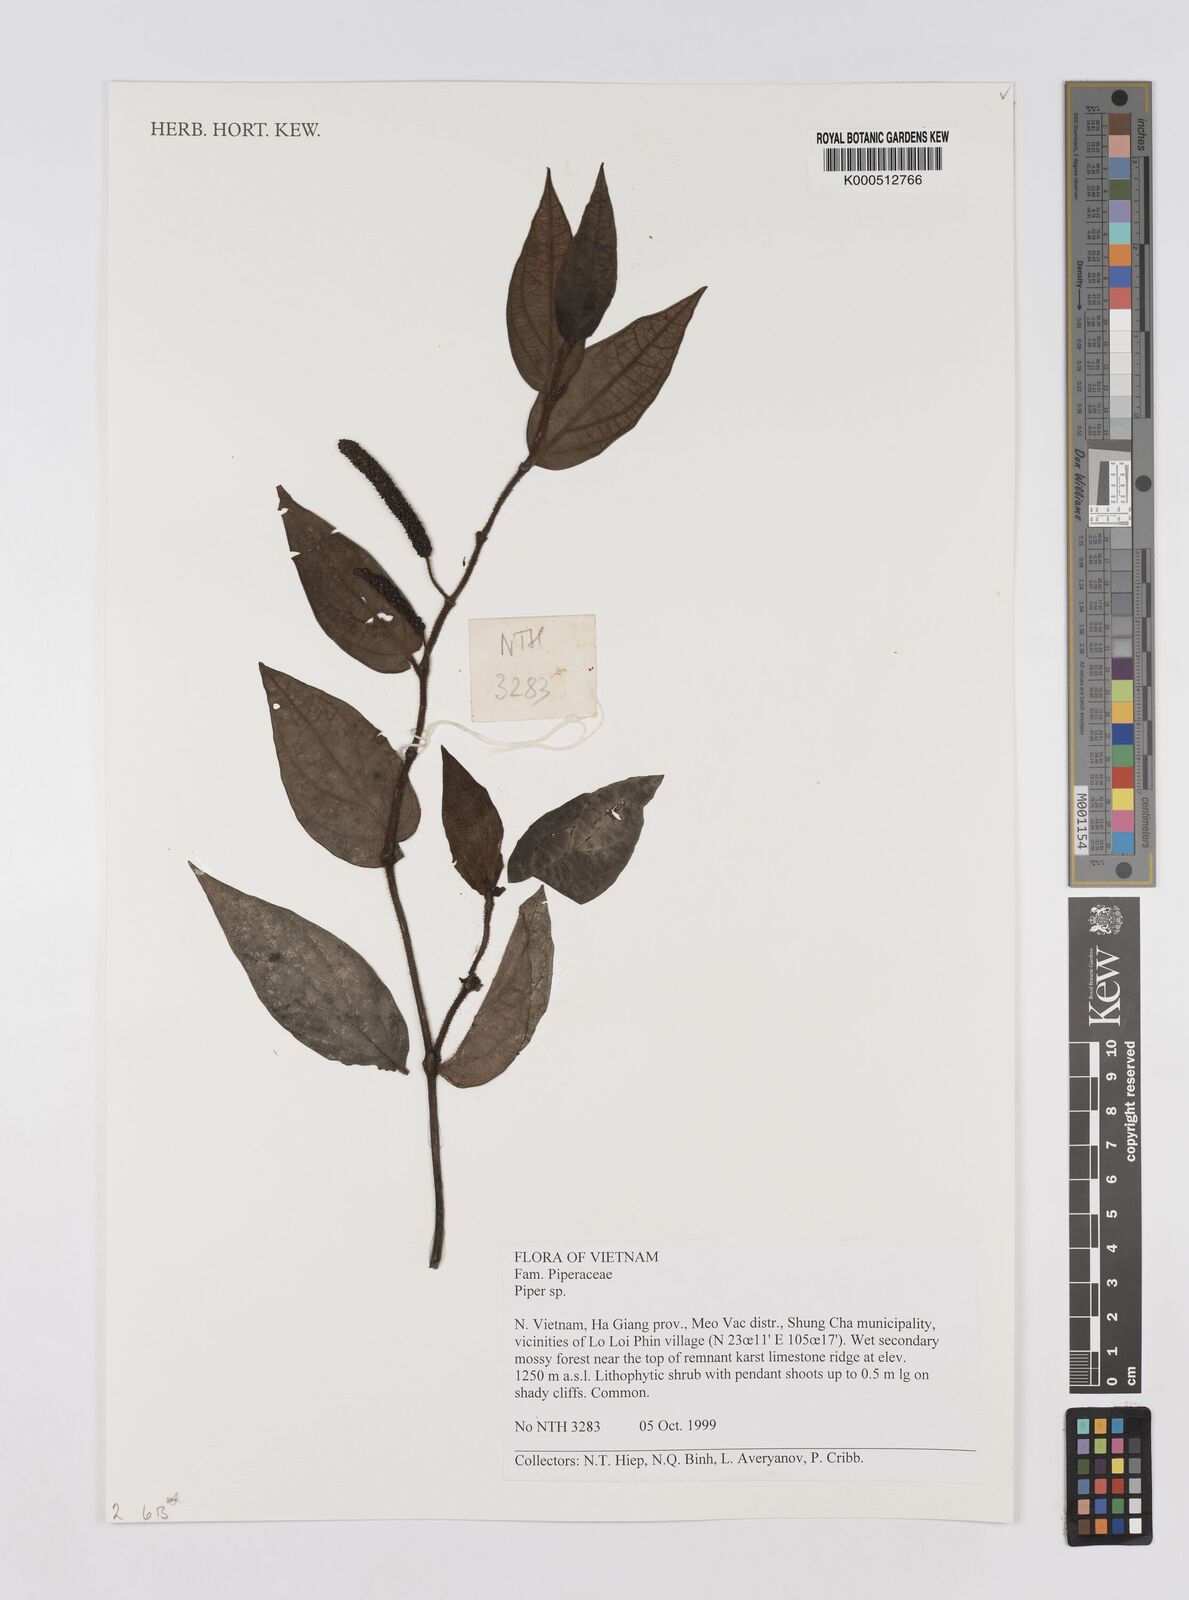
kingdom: Plantae
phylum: Tracheophyta
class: Magnoliopsida
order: Piperales
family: Piperaceae
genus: Piper
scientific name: Piper
